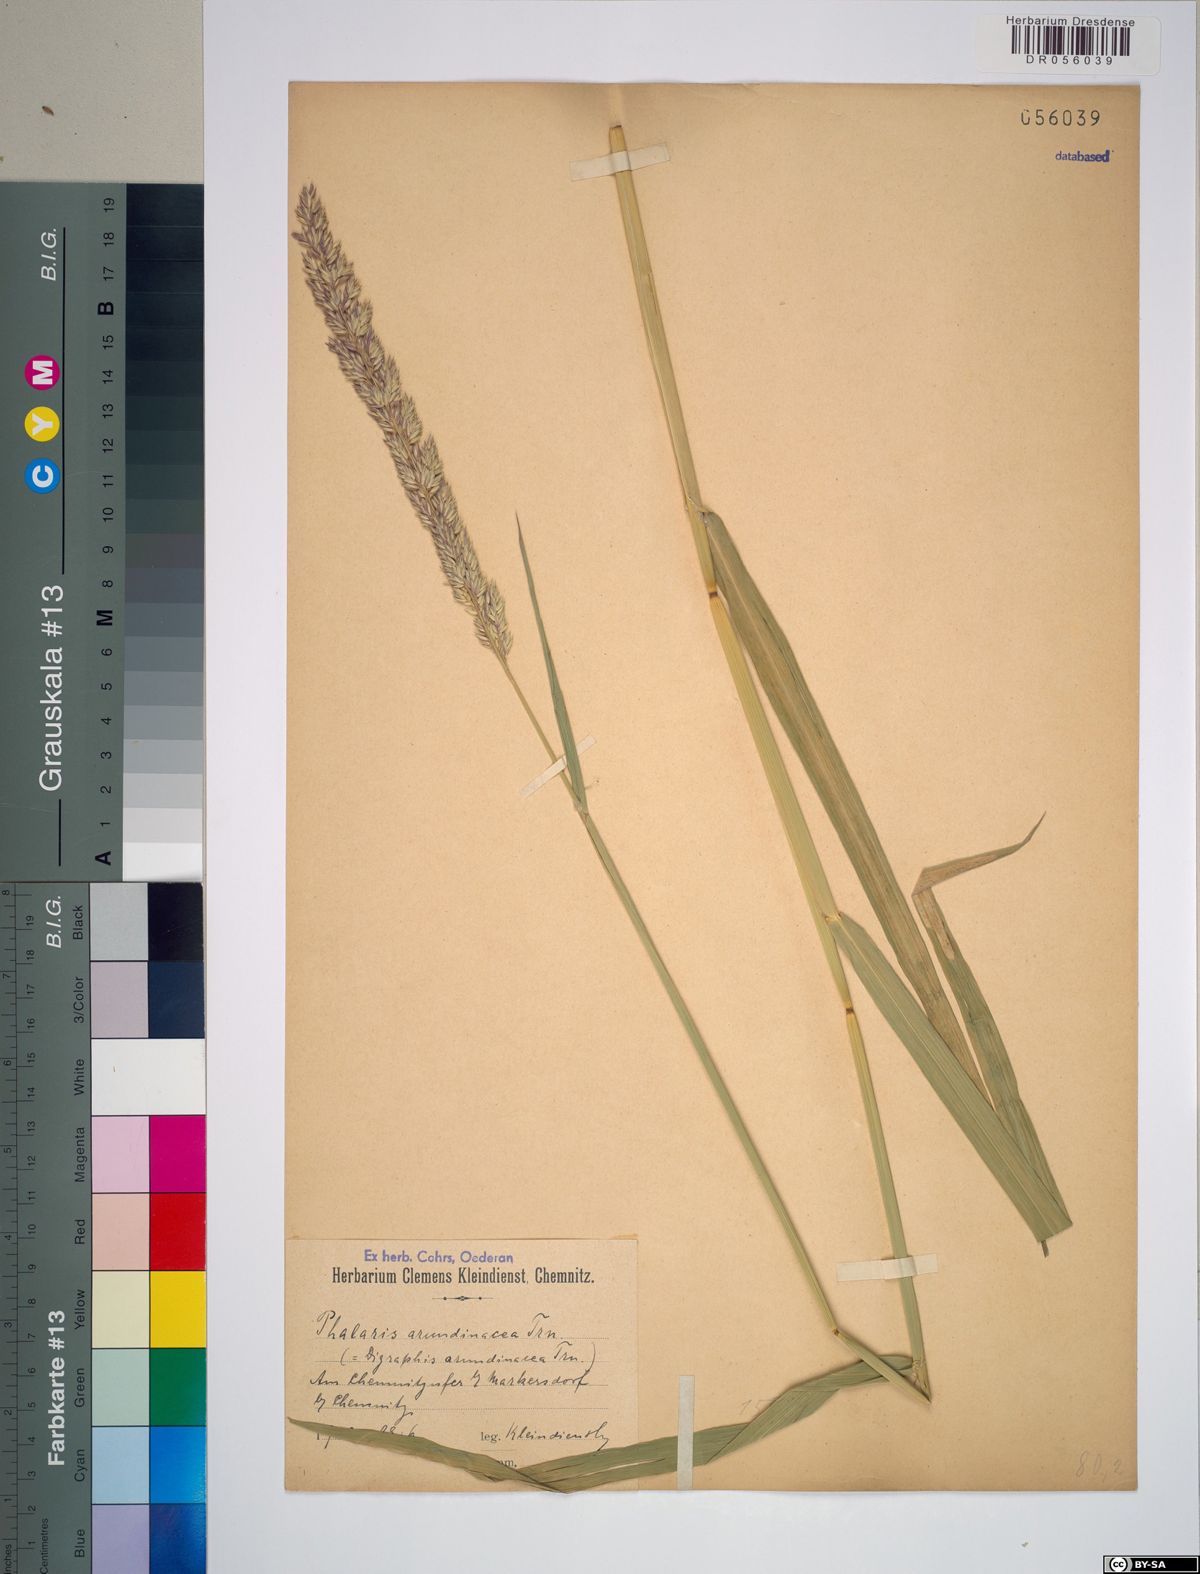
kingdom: Plantae
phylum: Tracheophyta
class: Liliopsida
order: Poales
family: Poaceae
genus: Phalaris
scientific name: Phalaris arundinacea
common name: Reed canary-grass
